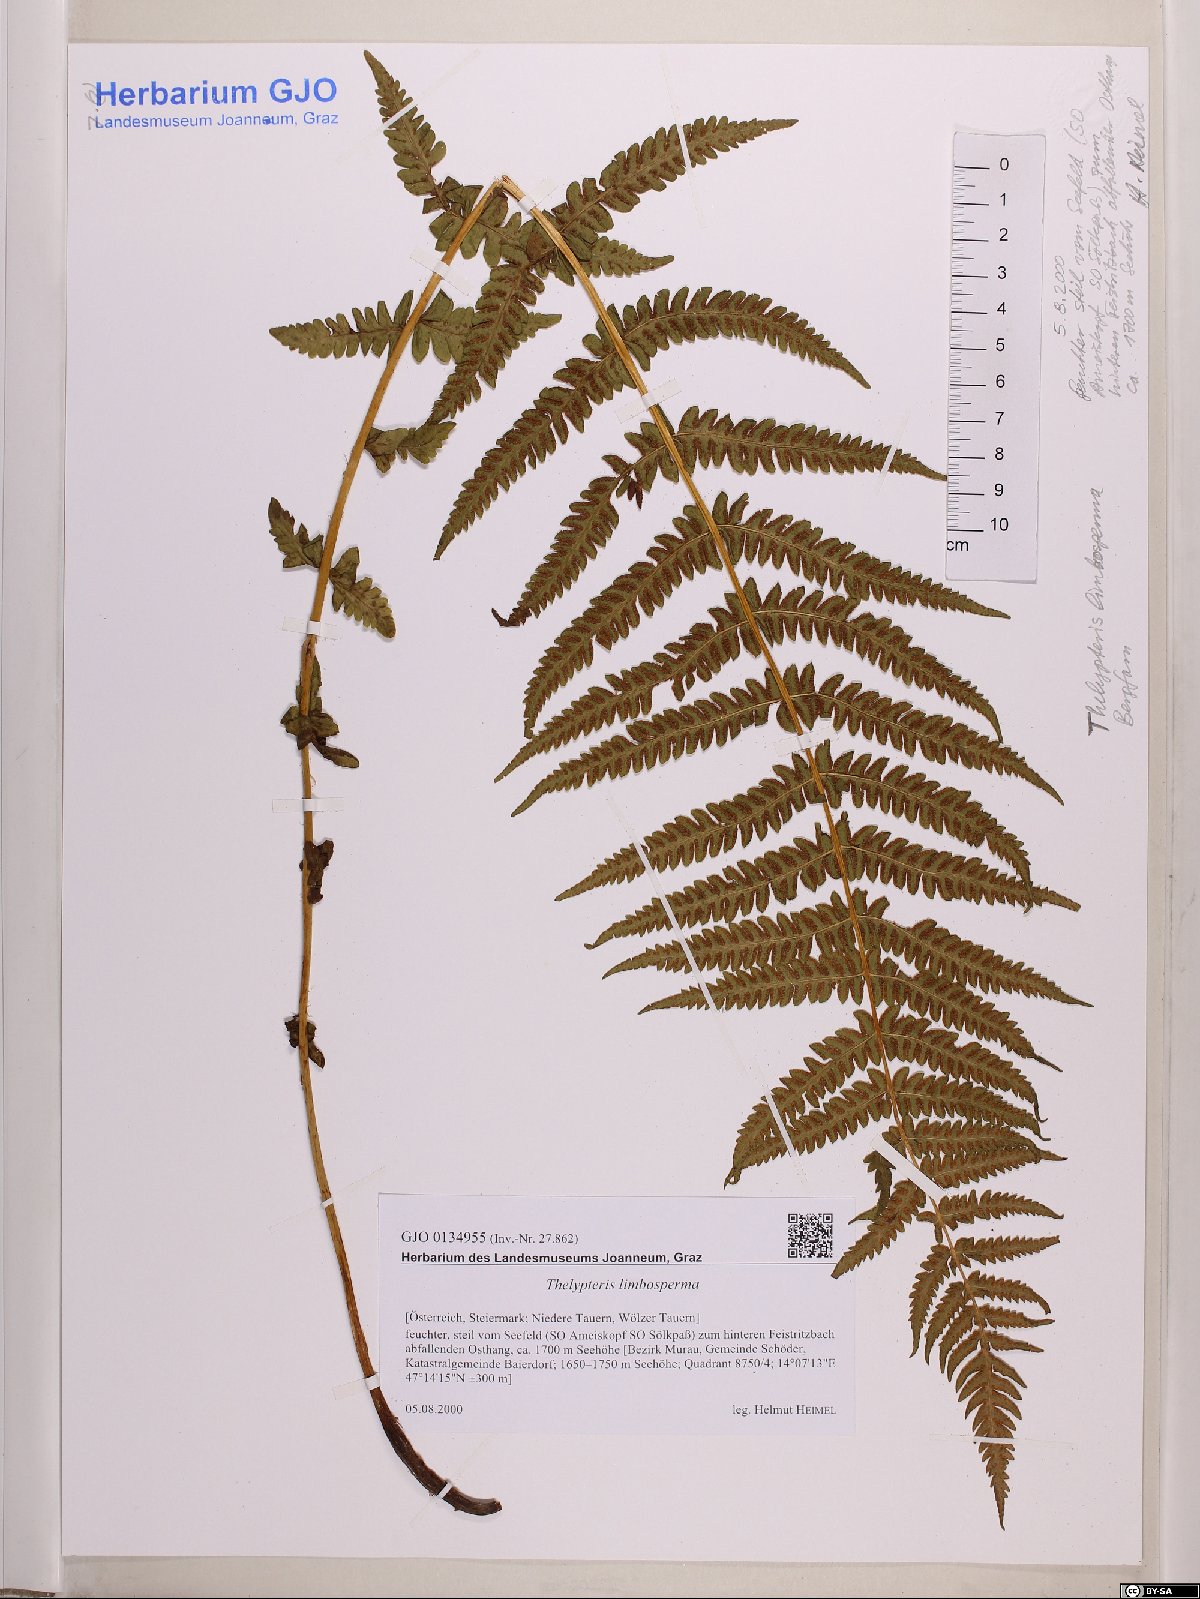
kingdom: Plantae
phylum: Tracheophyta
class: Polypodiopsida
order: Polypodiales
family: Thelypteridaceae
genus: Oreopteris
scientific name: Oreopteris limbosperma
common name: Lemon-scented fern
